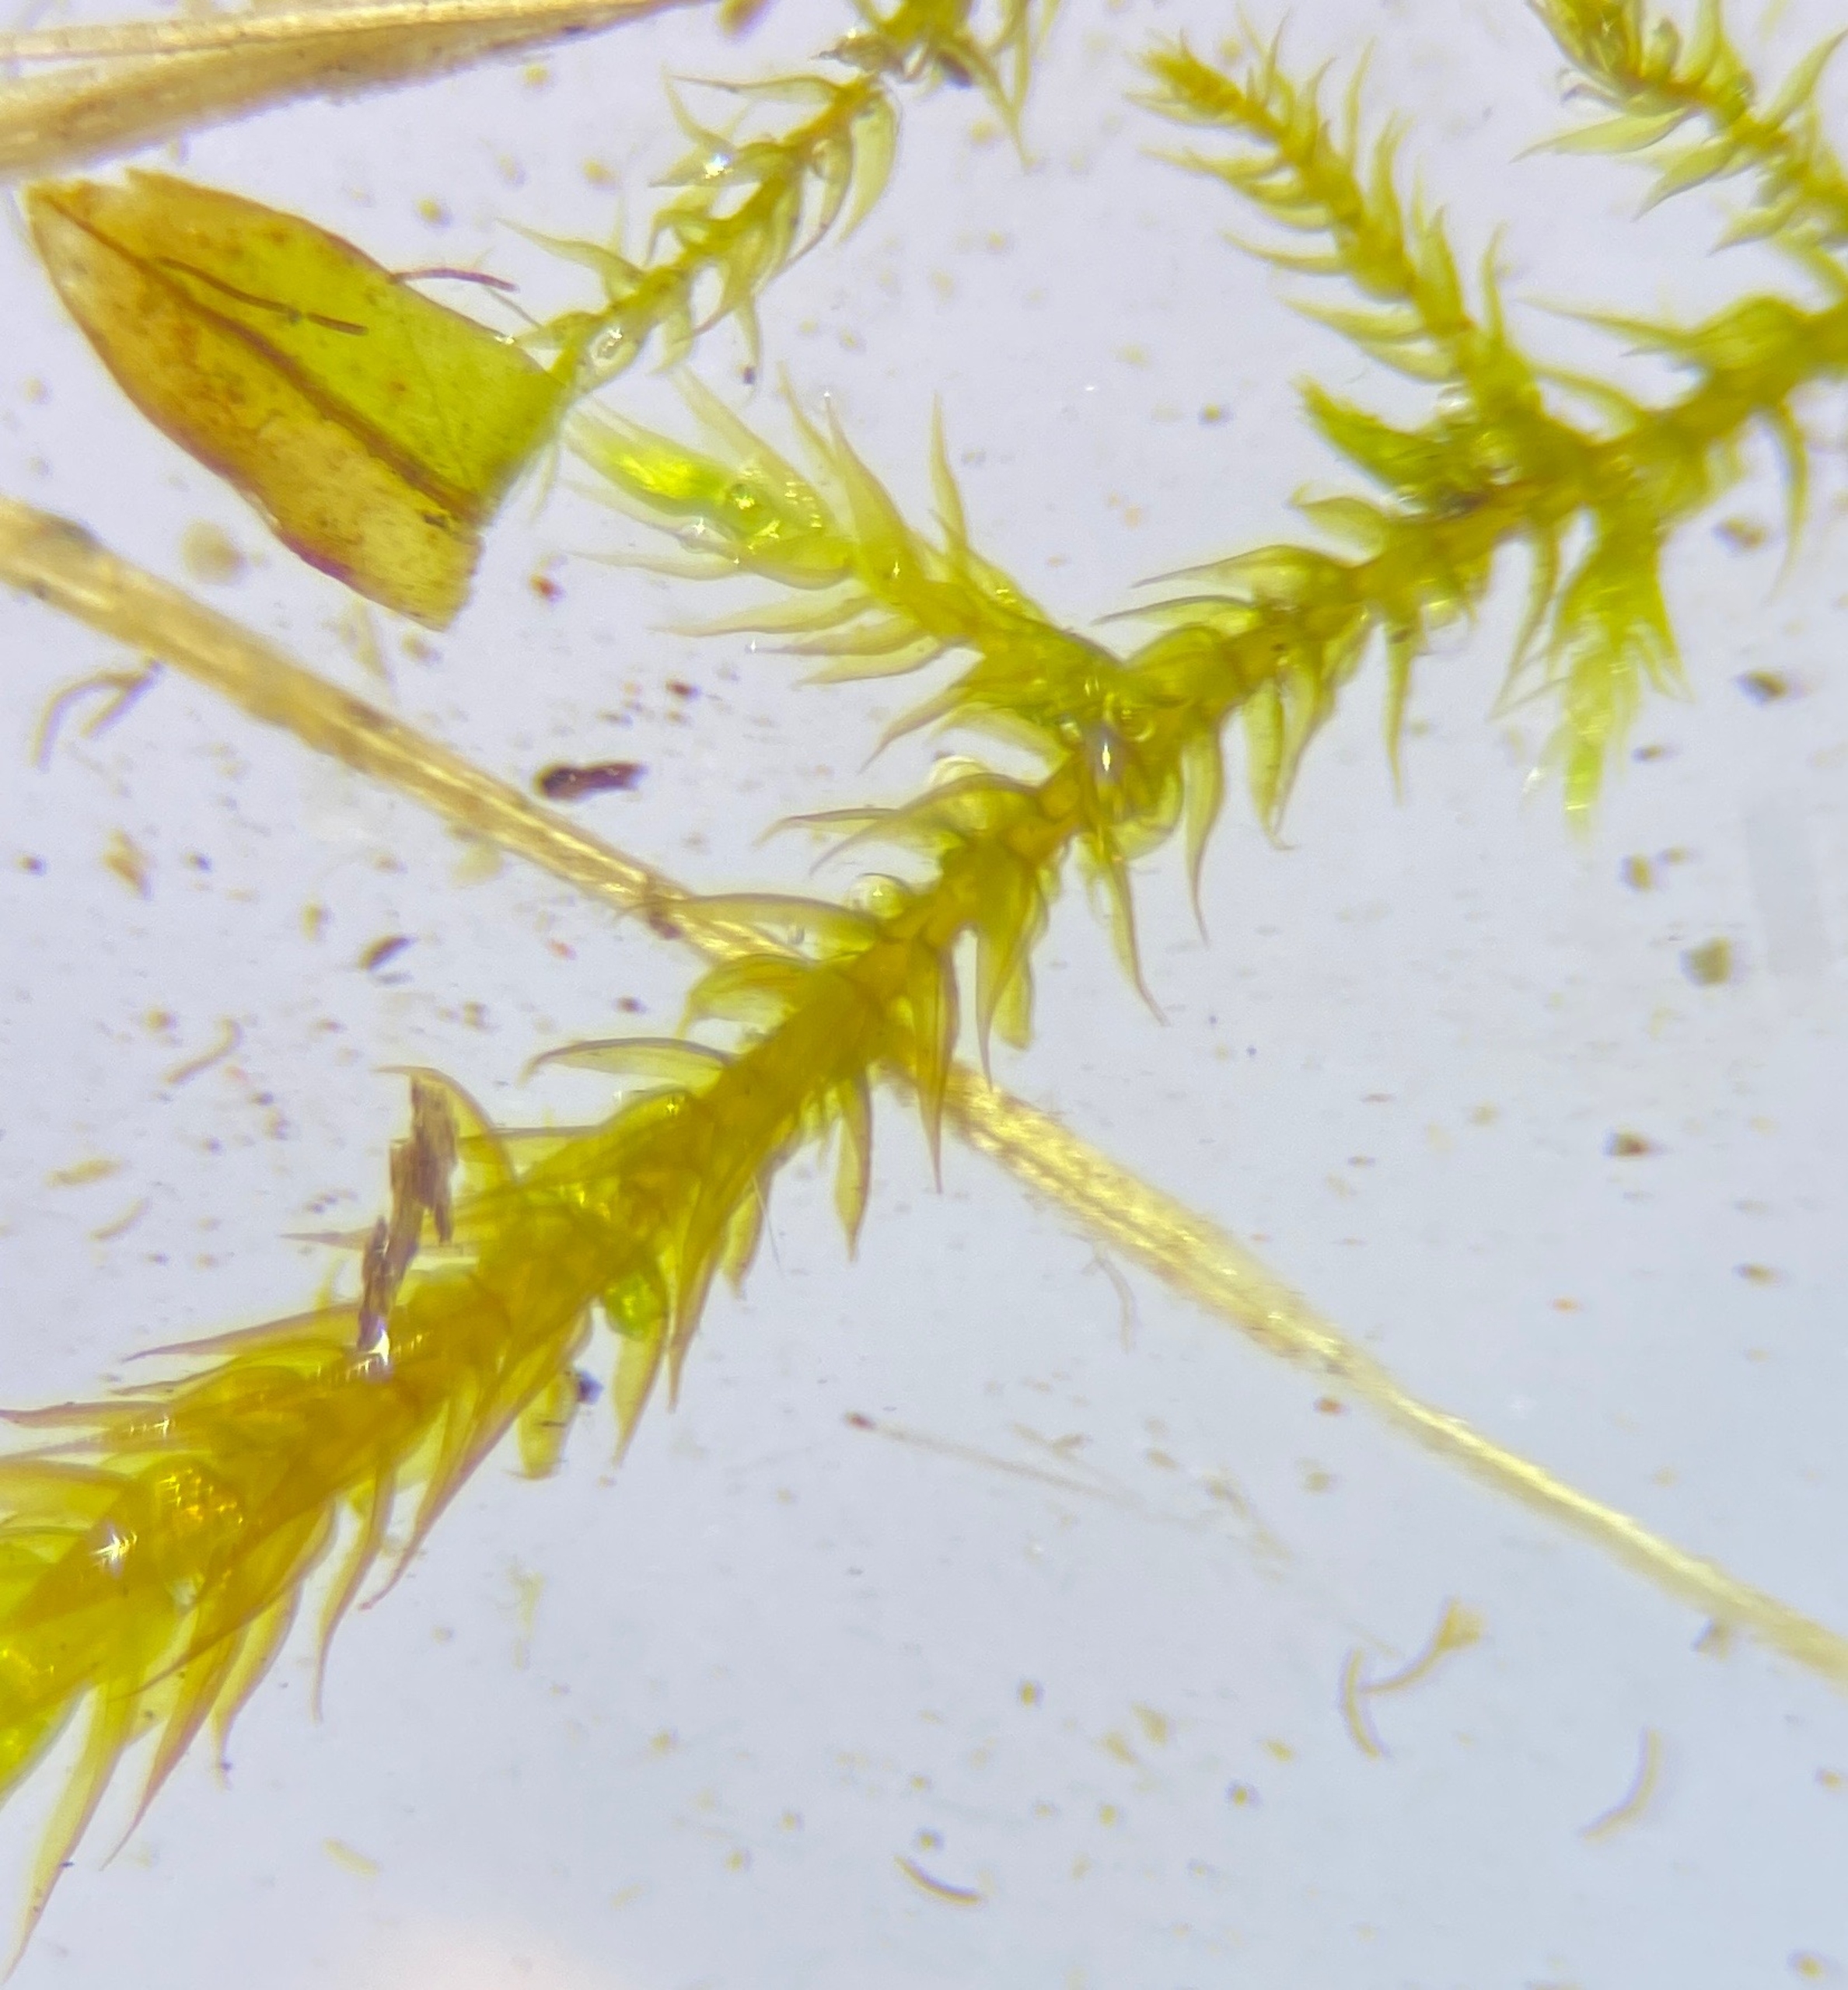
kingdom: Plantae
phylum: Bryophyta
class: Bryopsida
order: Hypnales
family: Amblystegiaceae
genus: Cratoneuron
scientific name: Cratoneuron filicinum
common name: Grøn eremitmos
